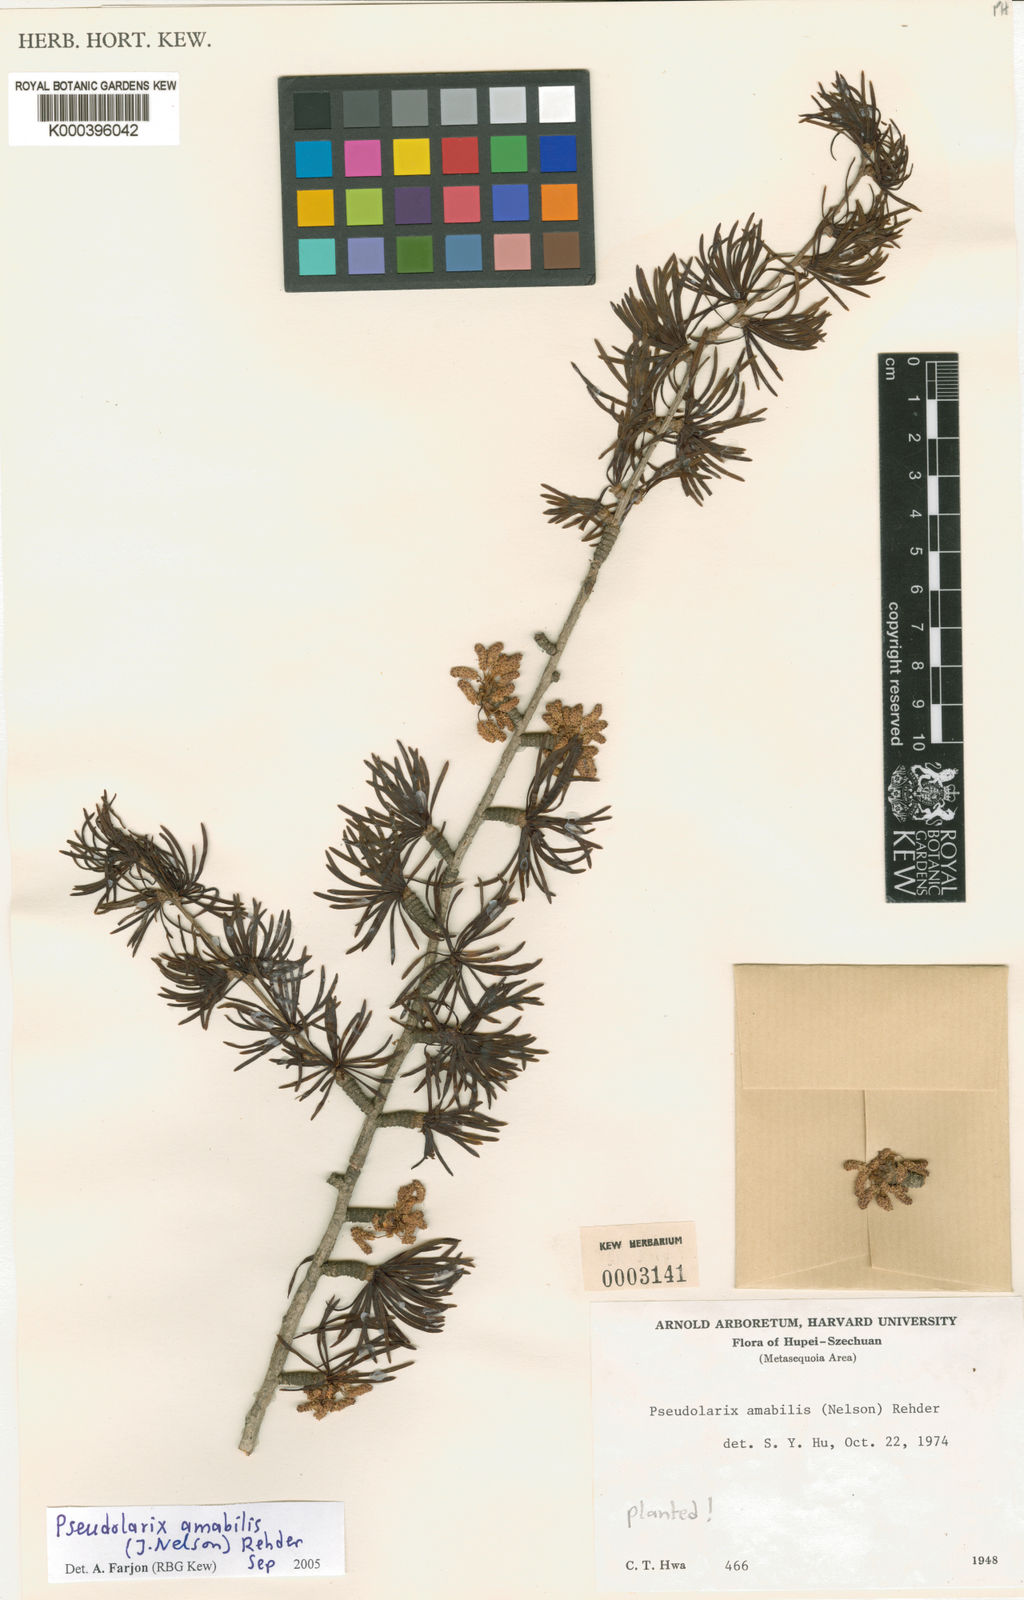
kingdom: Plantae
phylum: Tracheophyta
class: Pinopsida
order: Pinales
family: Pinaceae
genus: Pseudolarix
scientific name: Pseudolarix amabilis
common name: Chinese golden larch
